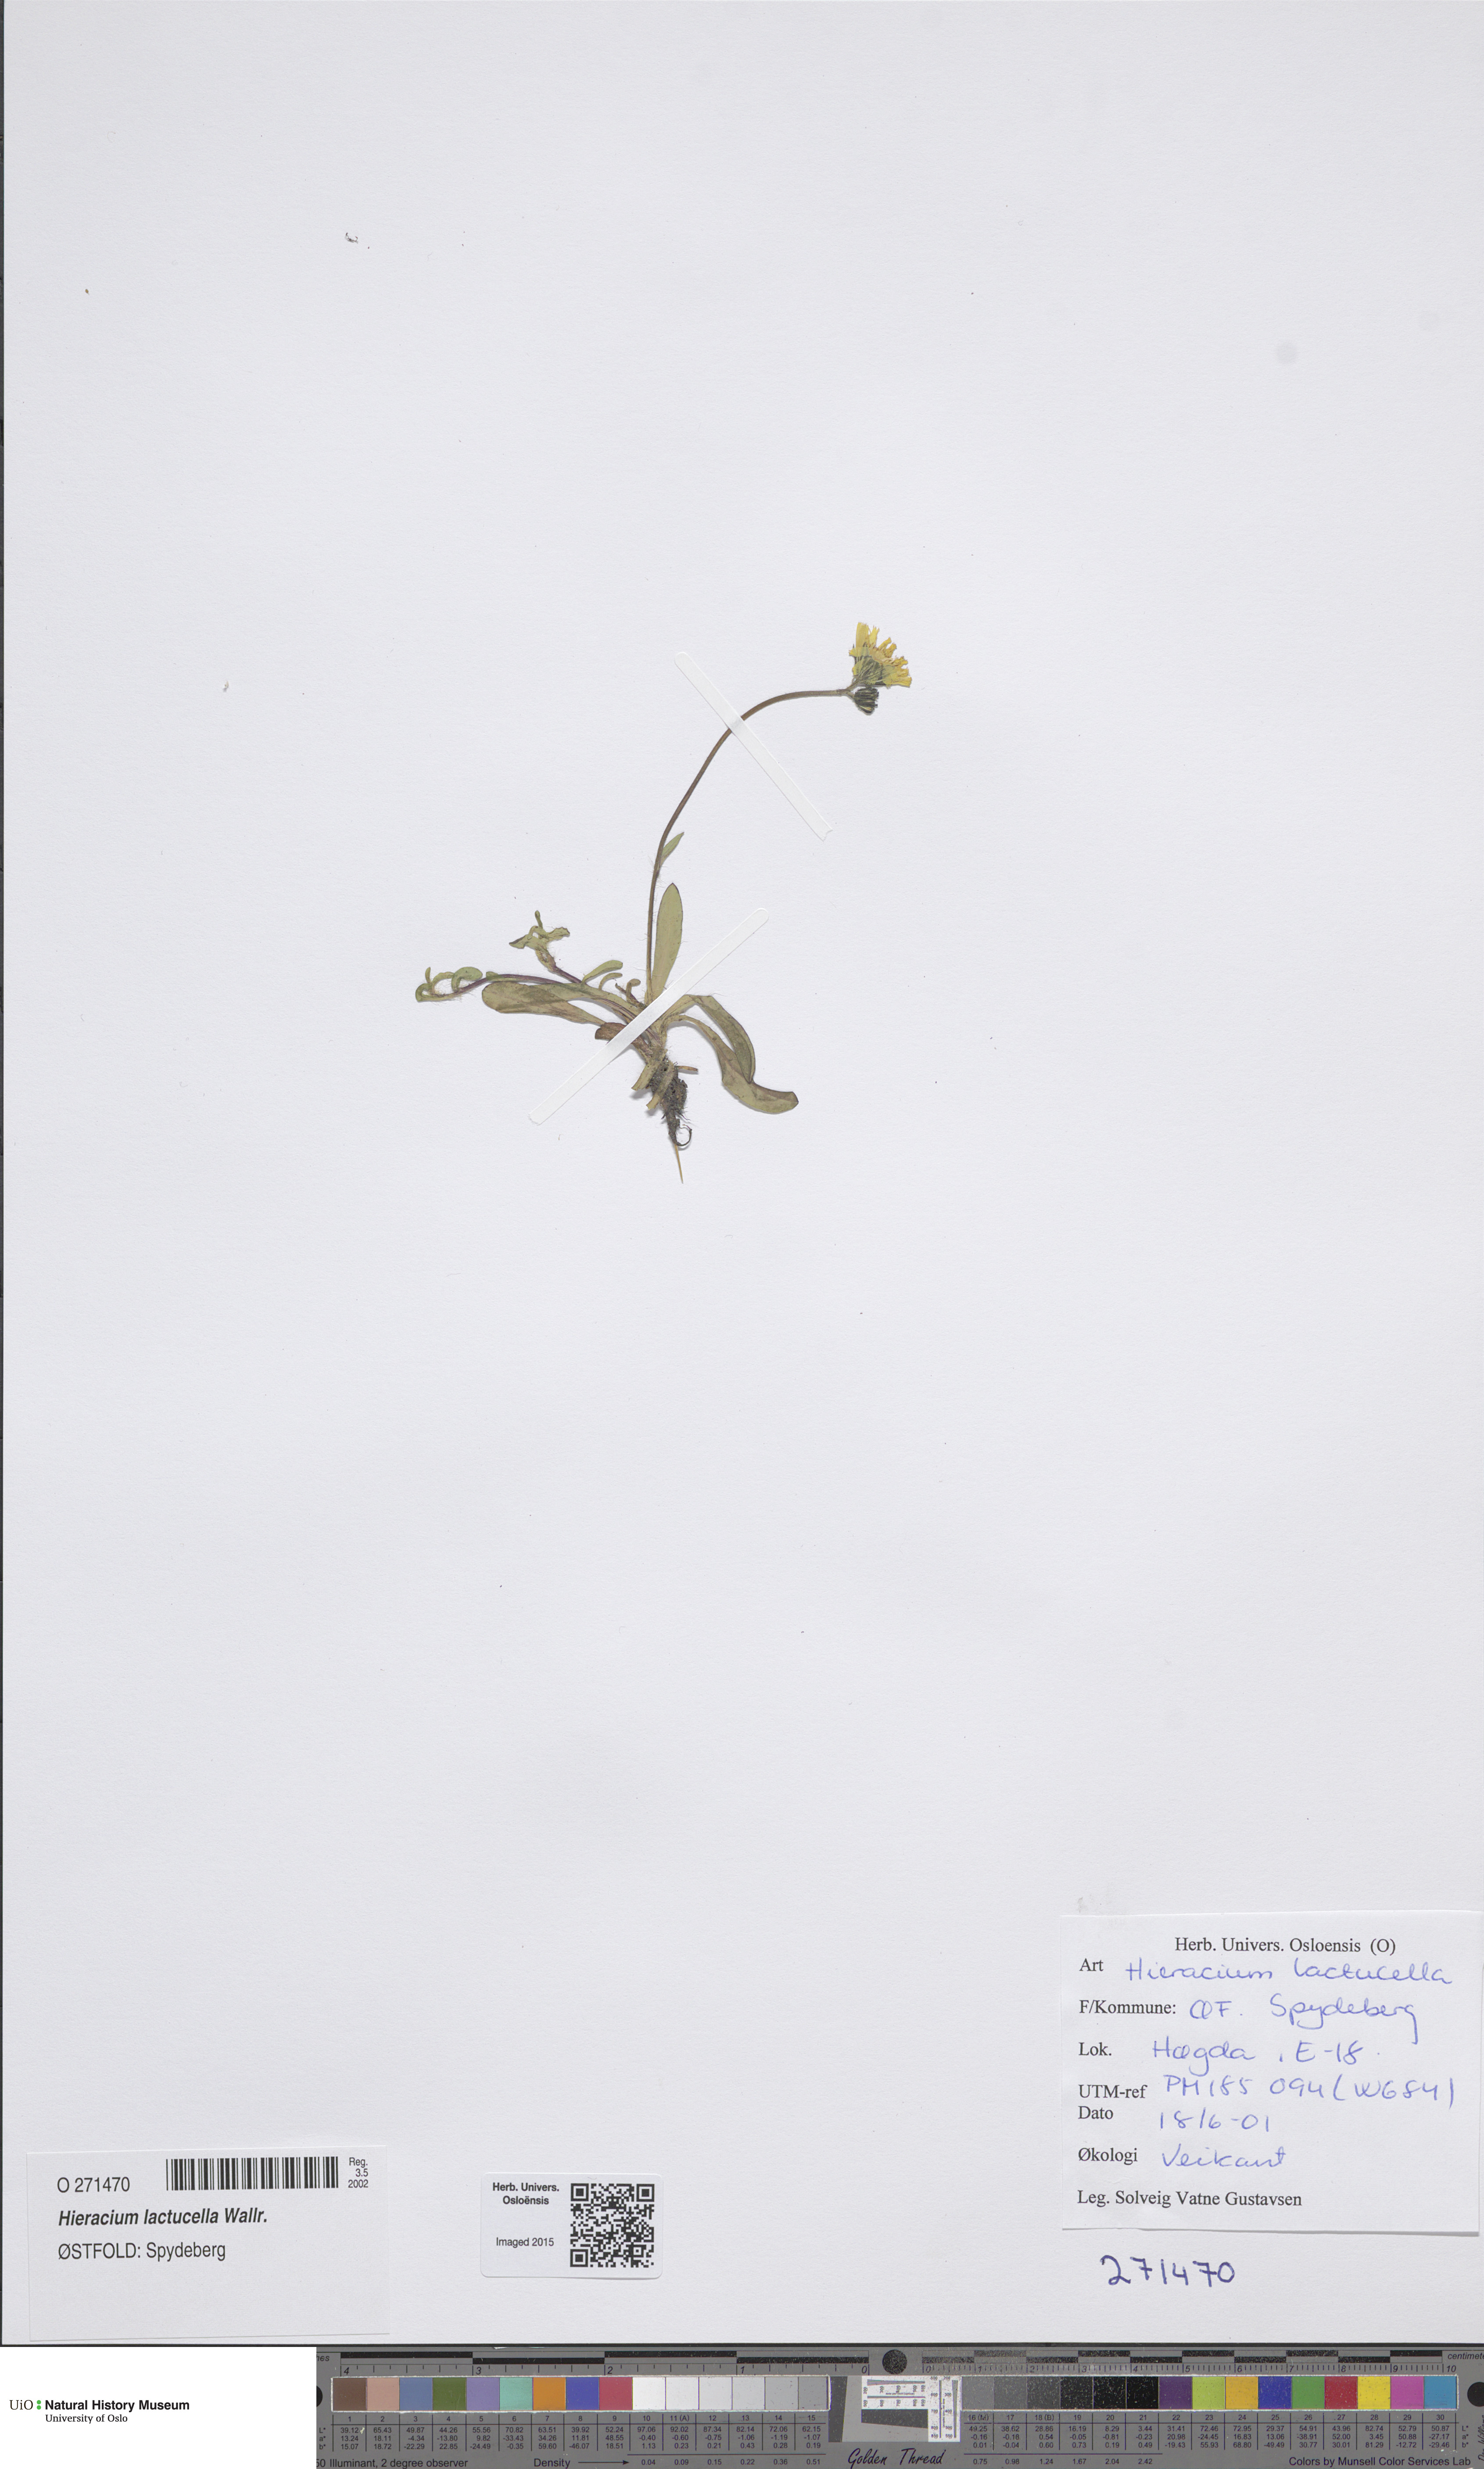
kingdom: Plantae
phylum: Tracheophyta
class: Magnoliopsida
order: Asterales
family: Asteraceae
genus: Pilosella
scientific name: Pilosella lactucella
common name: Glaucous fox-and-cubs
